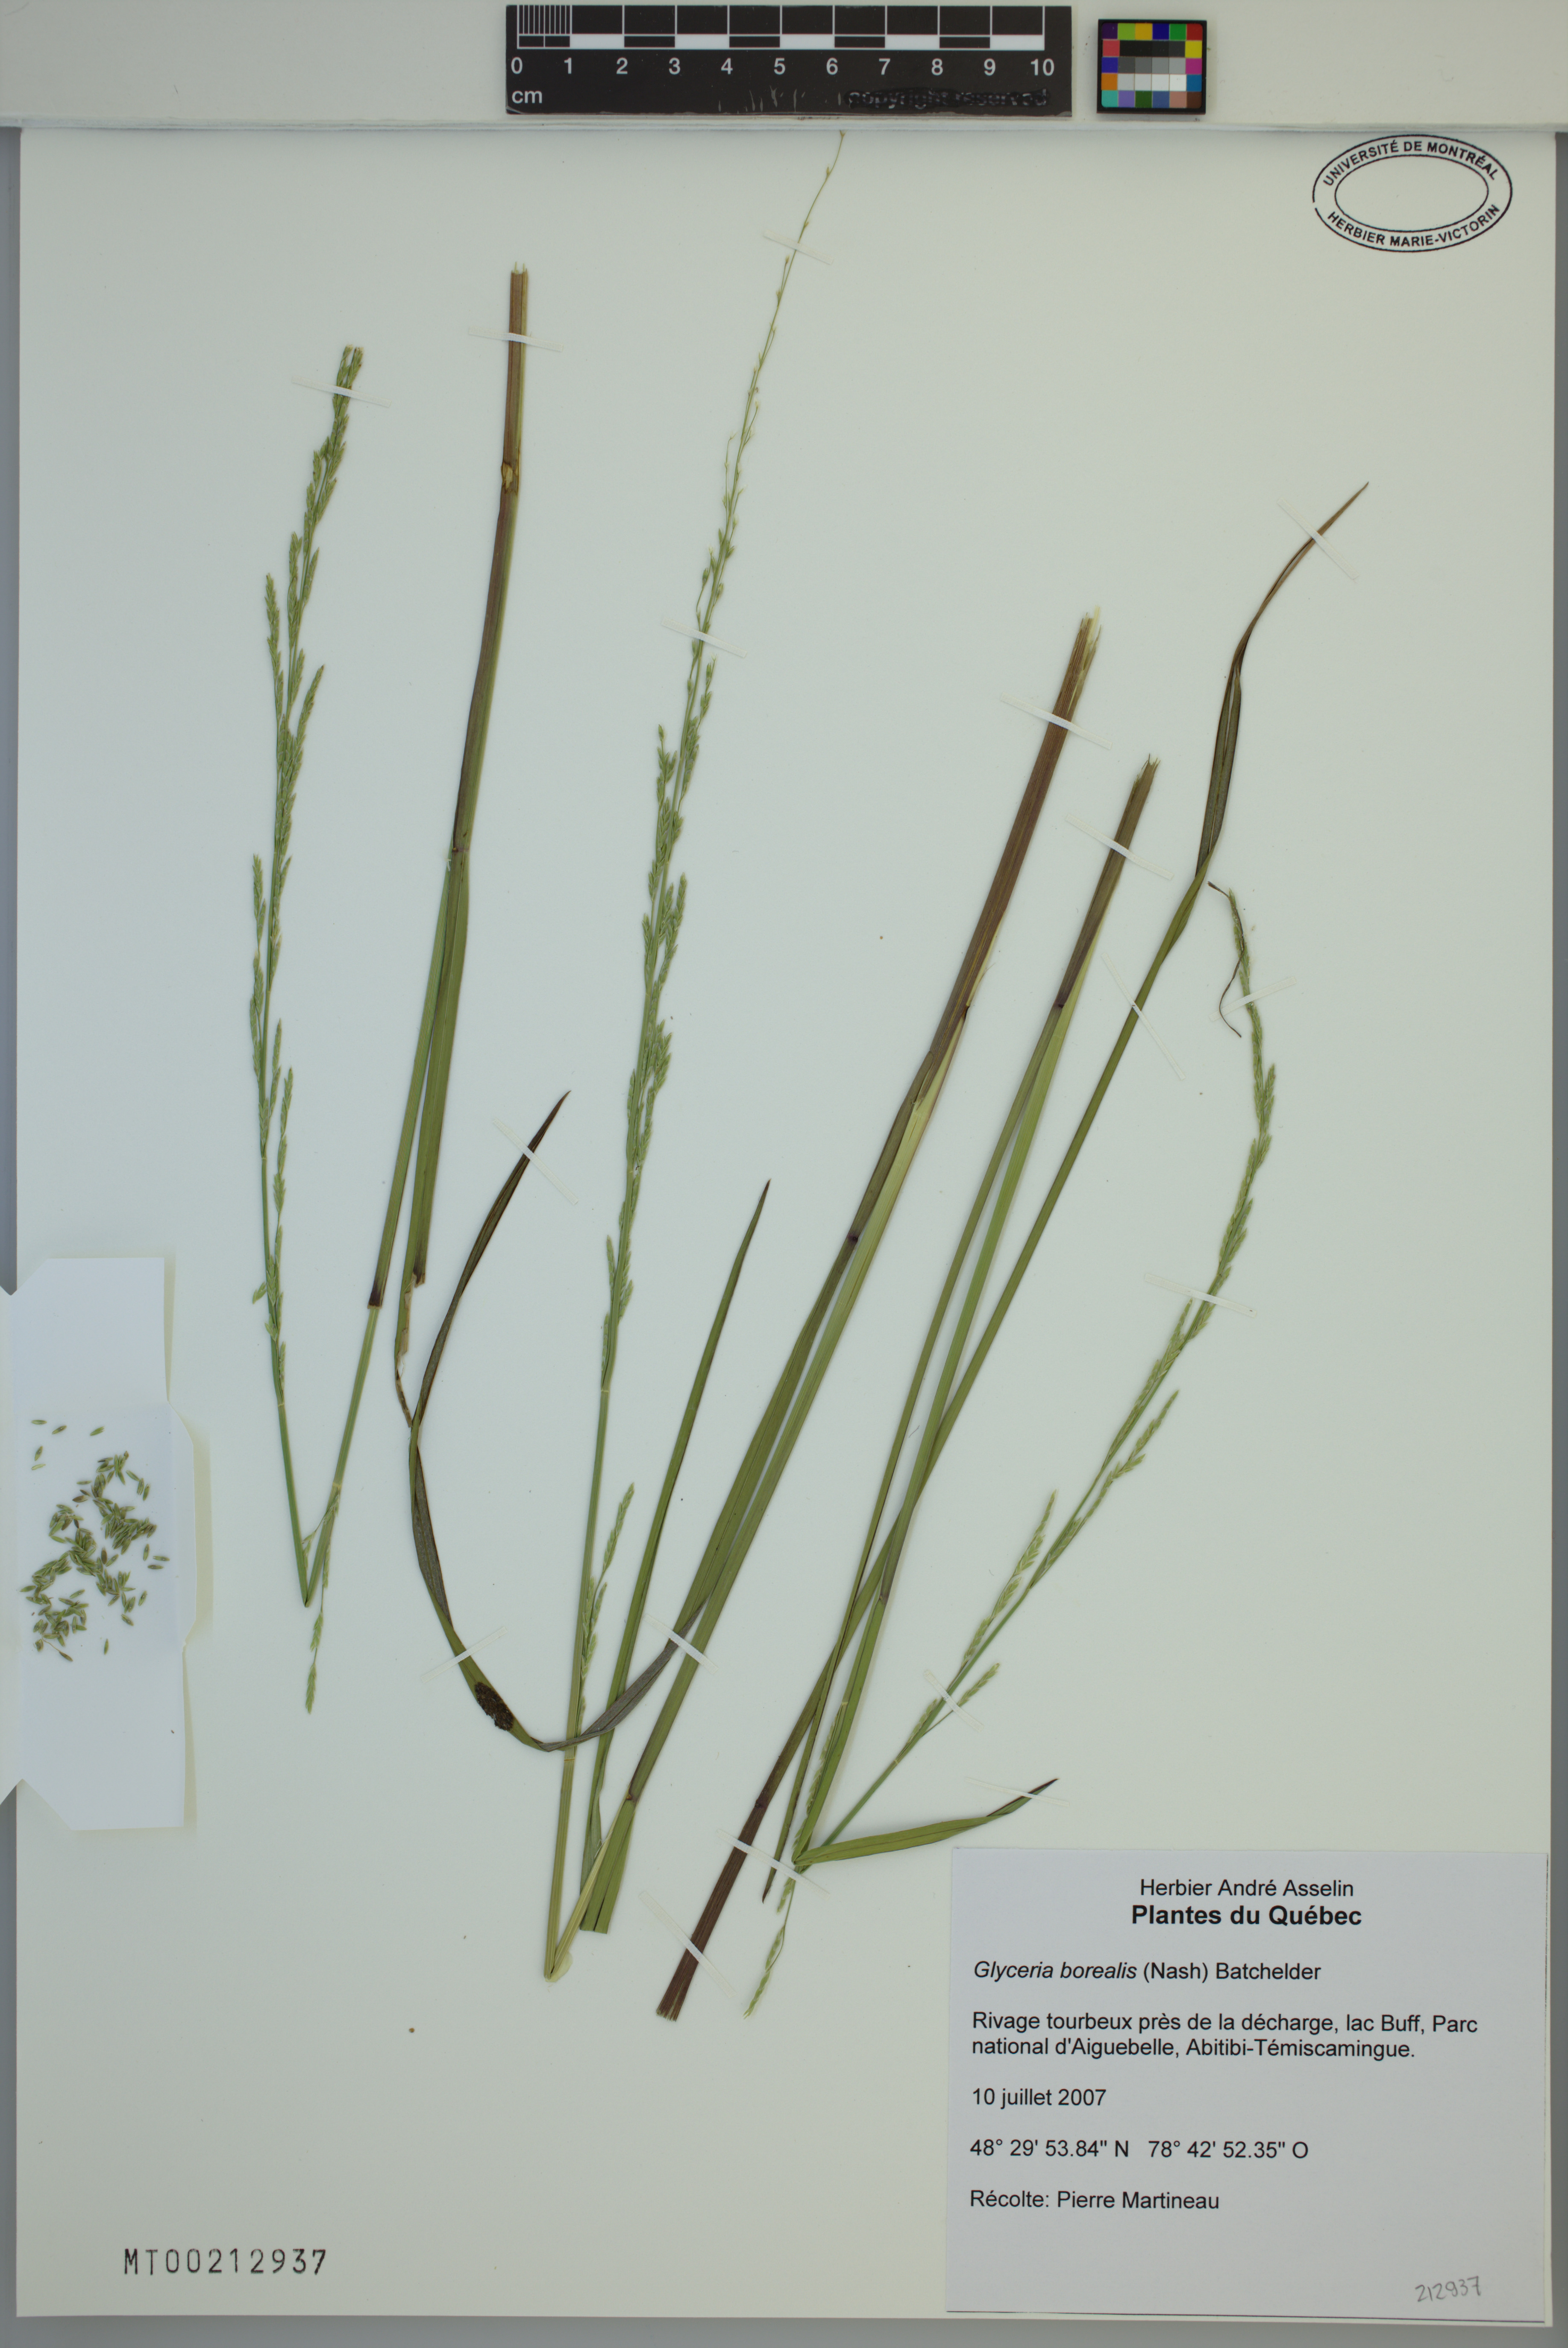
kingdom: Plantae
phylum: Tracheophyta
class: Liliopsida
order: Poales
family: Poaceae
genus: Glyceria
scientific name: Glyceria borealis
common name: Boreal glyceria
